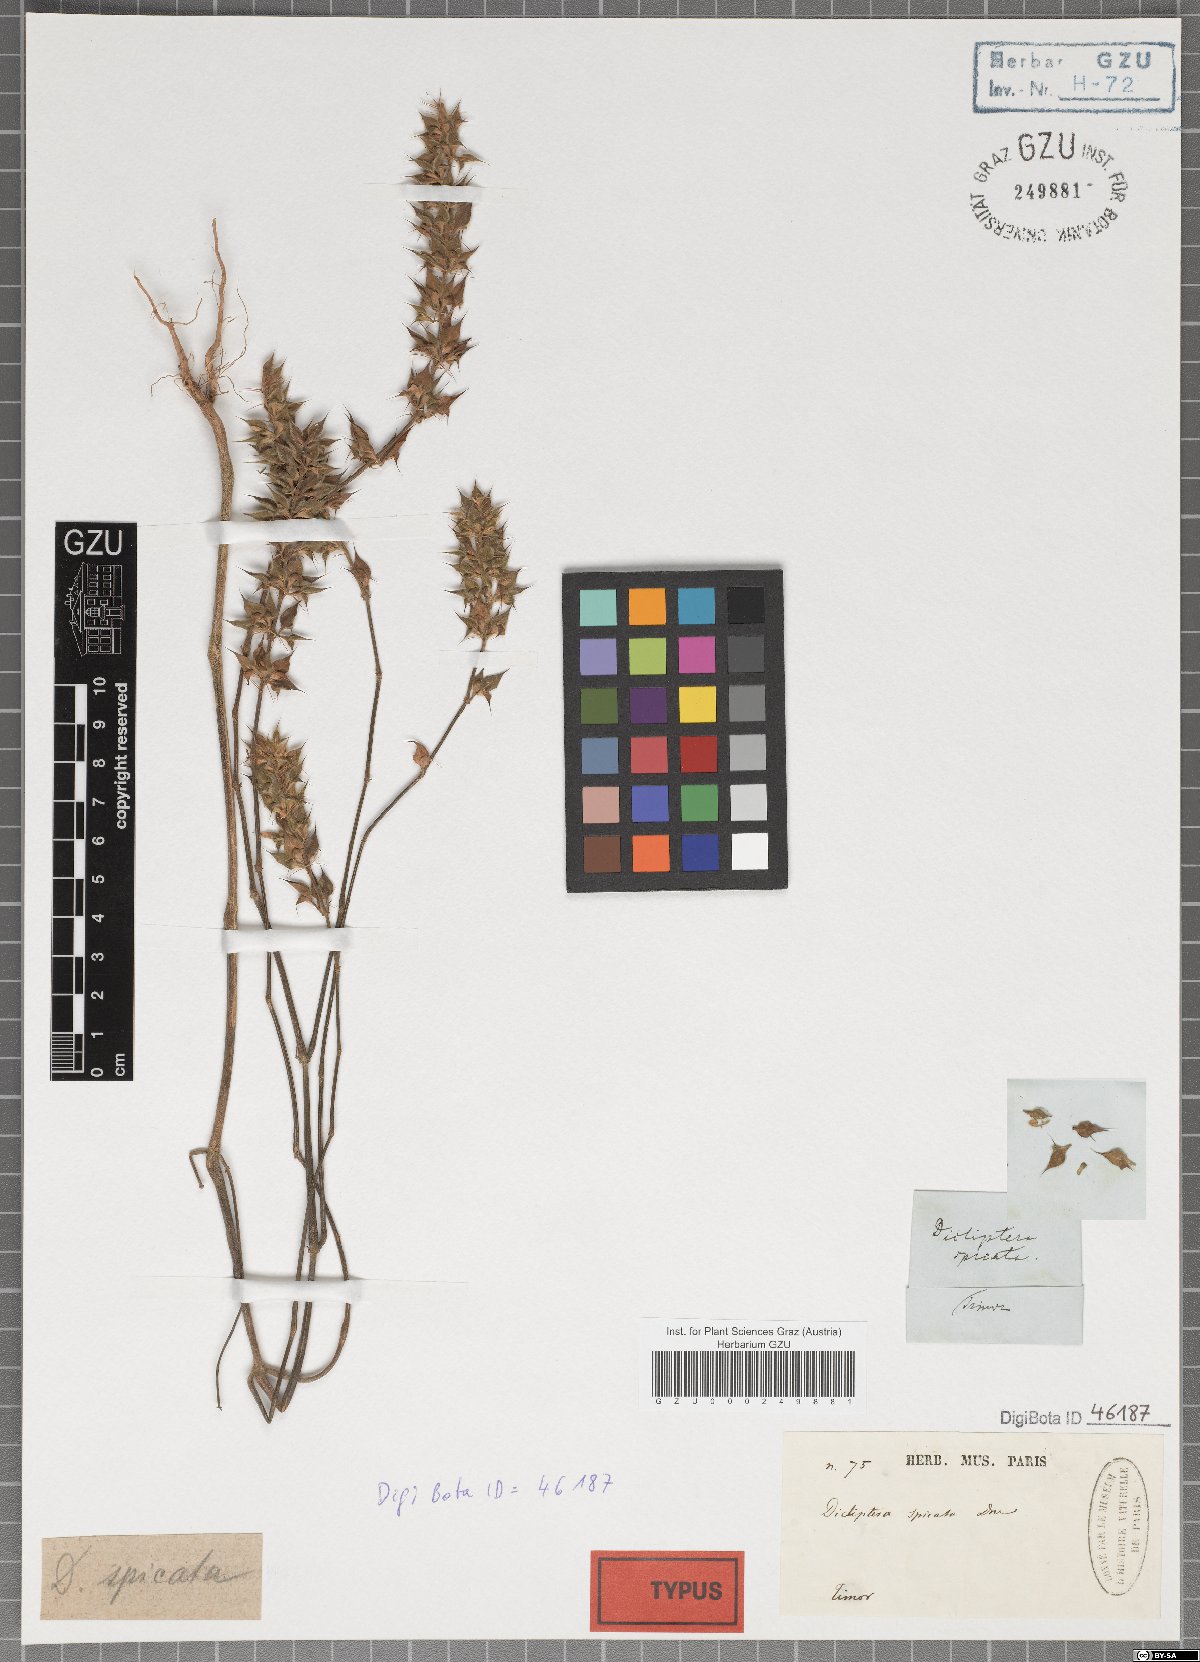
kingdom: Plantae
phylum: Tracheophyta
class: Magnoliopsida
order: Lamiales
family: Acanthaceae
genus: Dicliptera
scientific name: Dicliptera spicata
